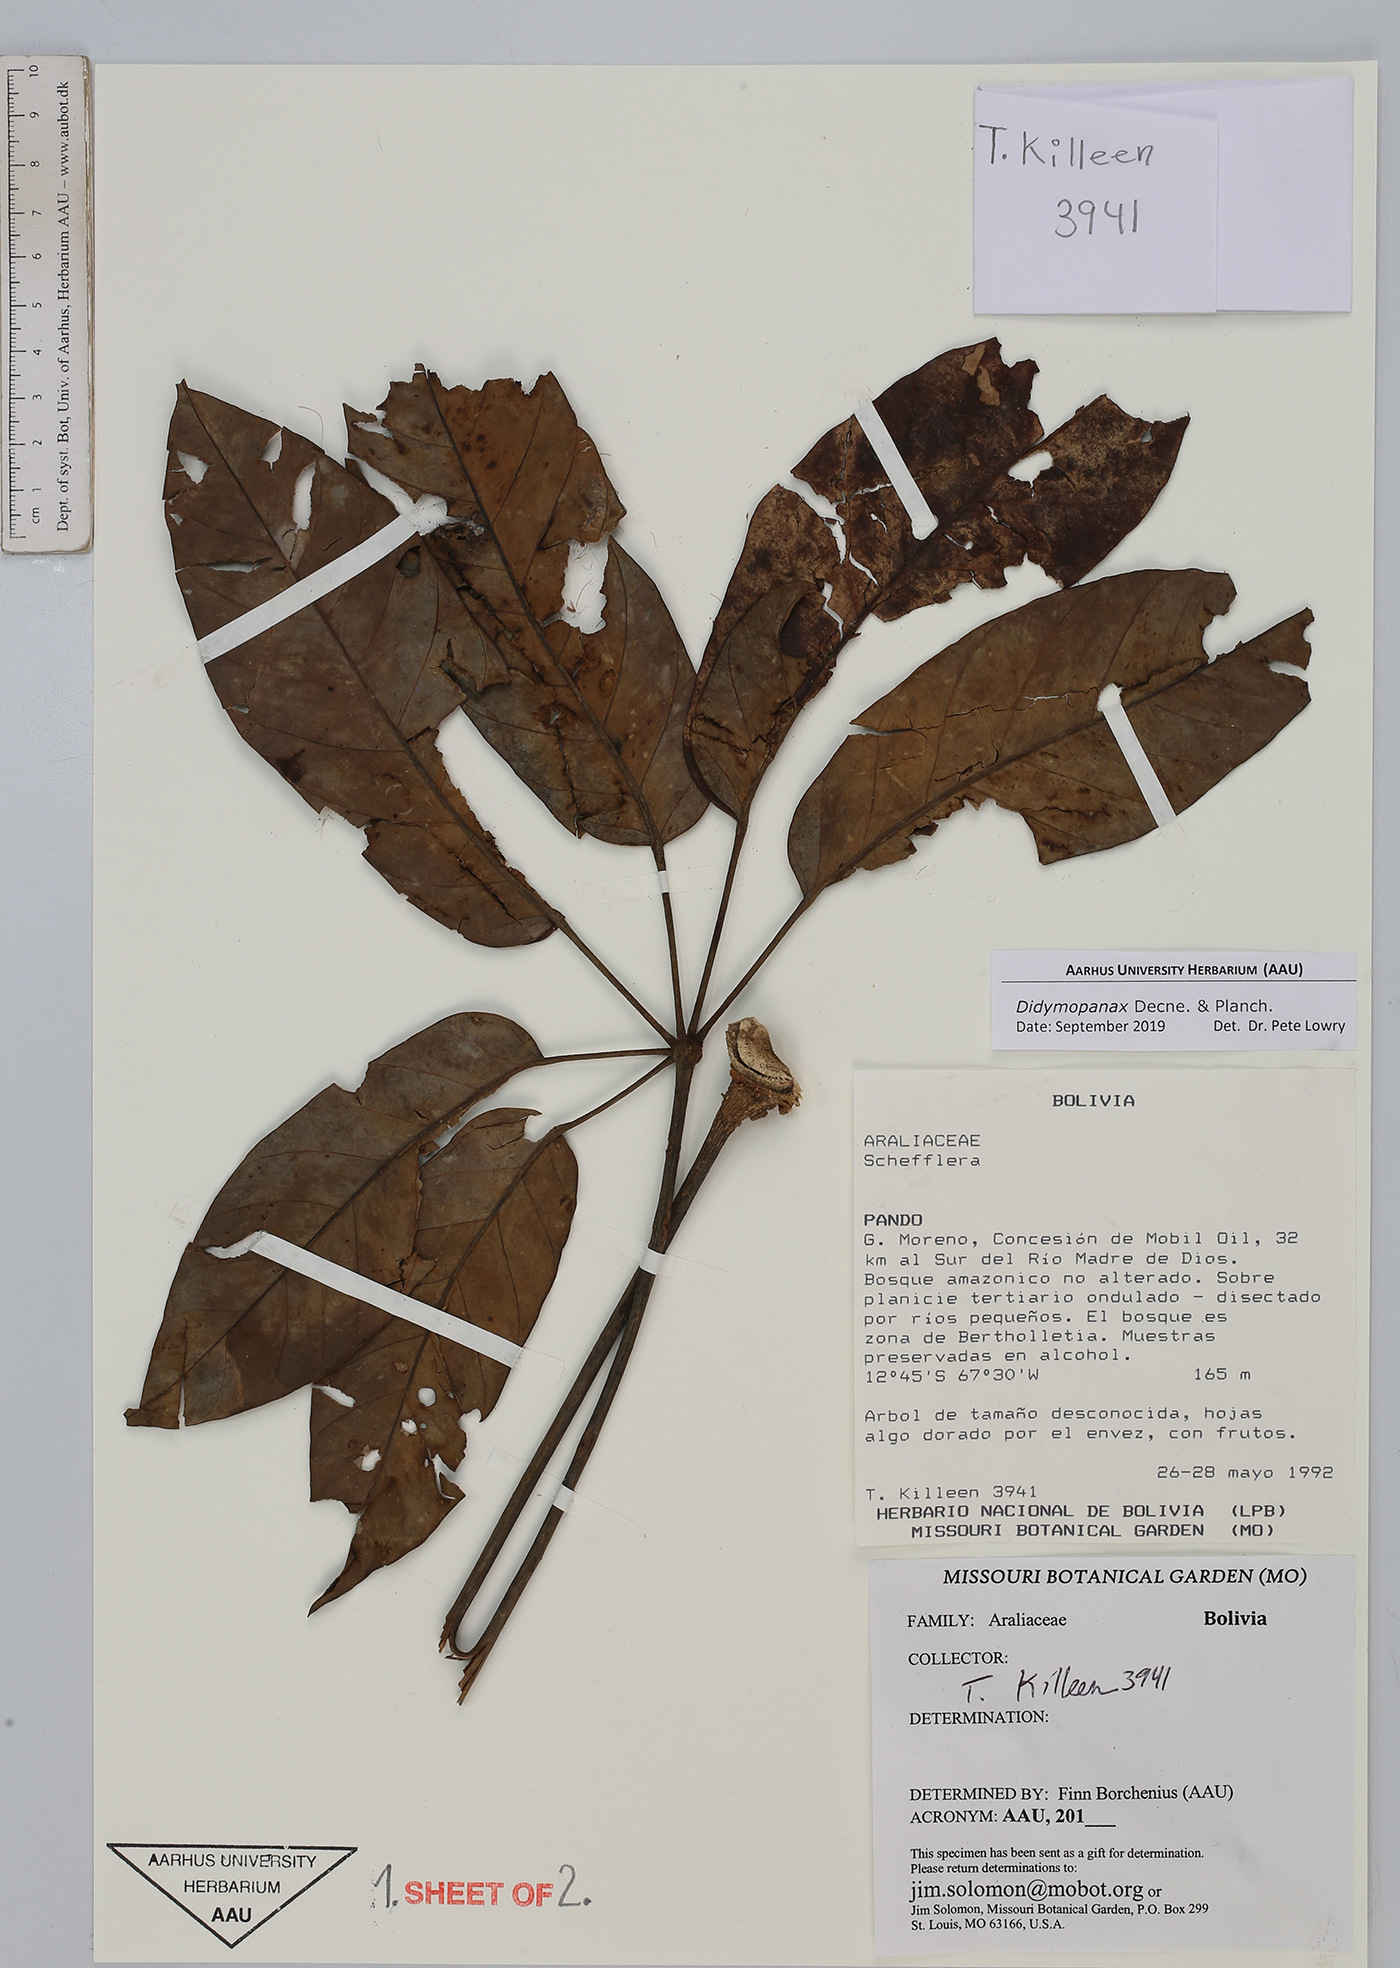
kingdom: Plantae
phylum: Tracheophyta
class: Magnoliopsida
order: Apiales
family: Araliaceae
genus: Didymopanax
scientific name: Didymopanax
